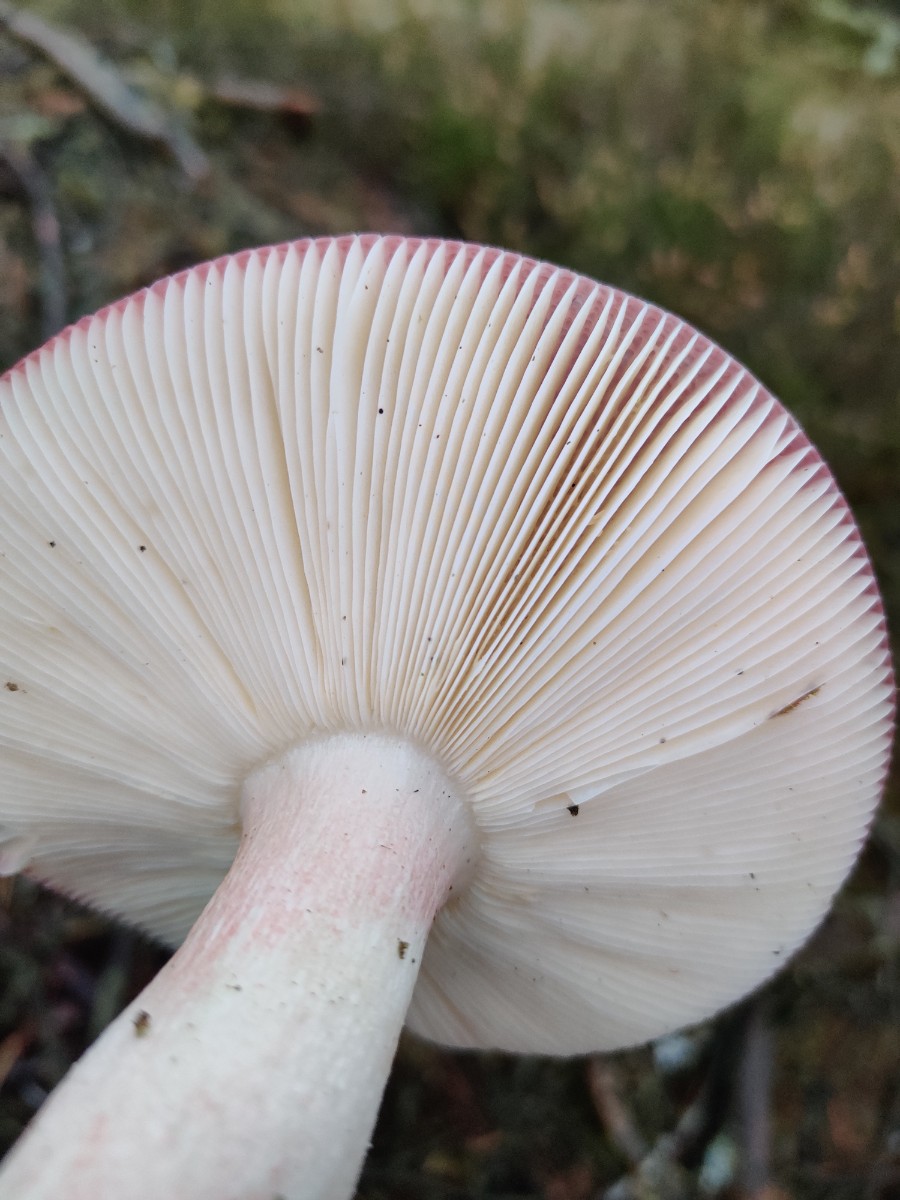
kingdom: Fungi
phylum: Basidiomycota
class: Agaricomycetes
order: Russulales
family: Russulaceae
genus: Russula
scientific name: Russula paludosa
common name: prægtig skørhat
